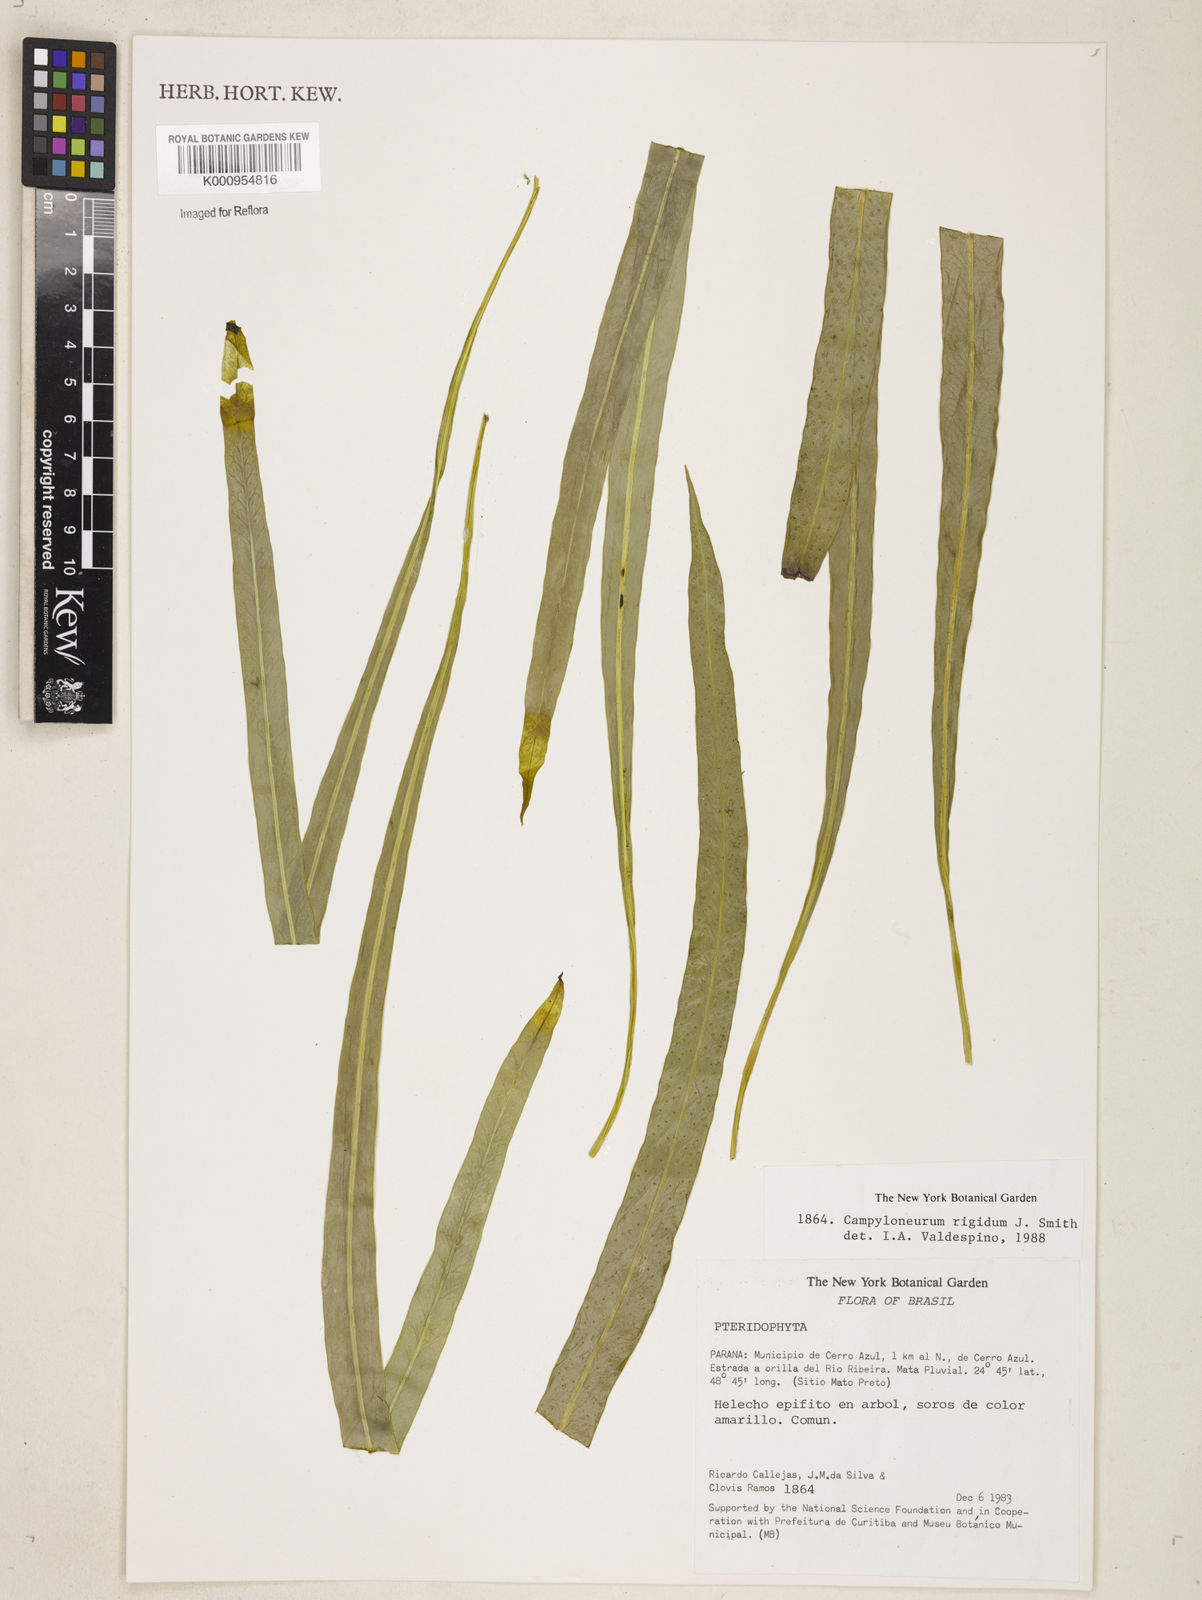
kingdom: Plantae
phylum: Tracheophyta
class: Polypodiopsida
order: Polypodiales
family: Polypodiaceae
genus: Campyloneurum
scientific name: Campyloneurum rigidum
